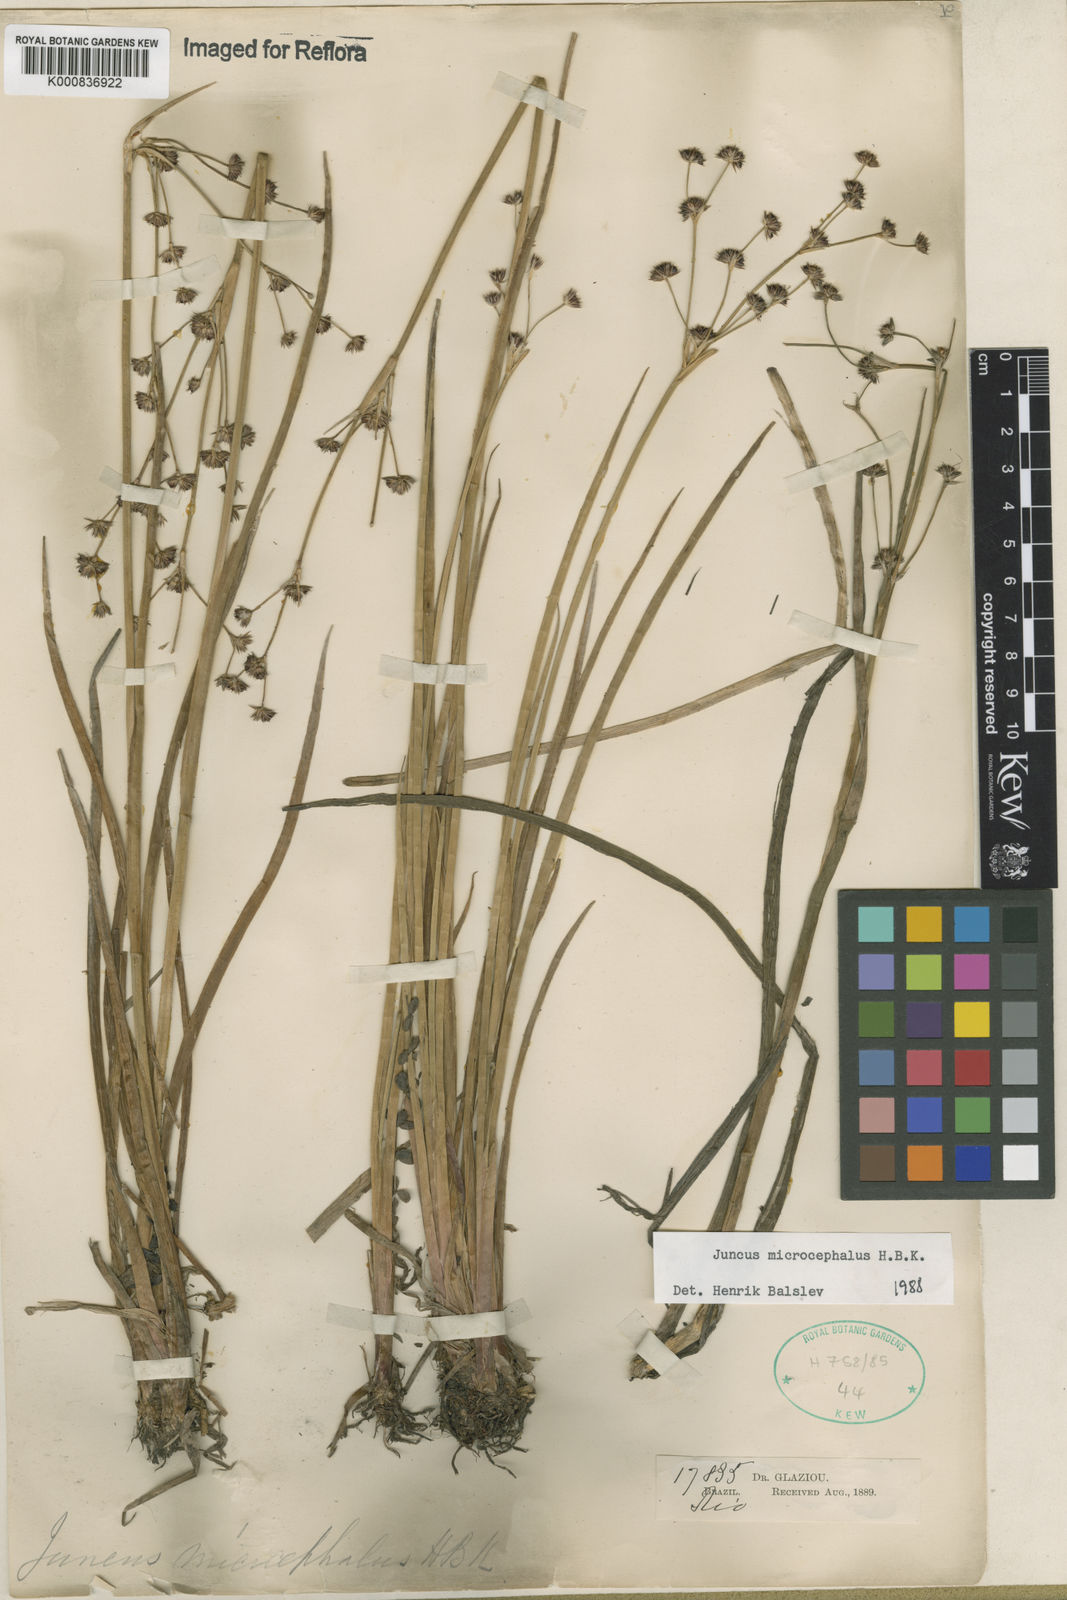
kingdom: Plantae
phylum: Tracheophyta
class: Liliopsida
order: Poales
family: Juncaceae
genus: Juncus
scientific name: Juncus microcephalus
